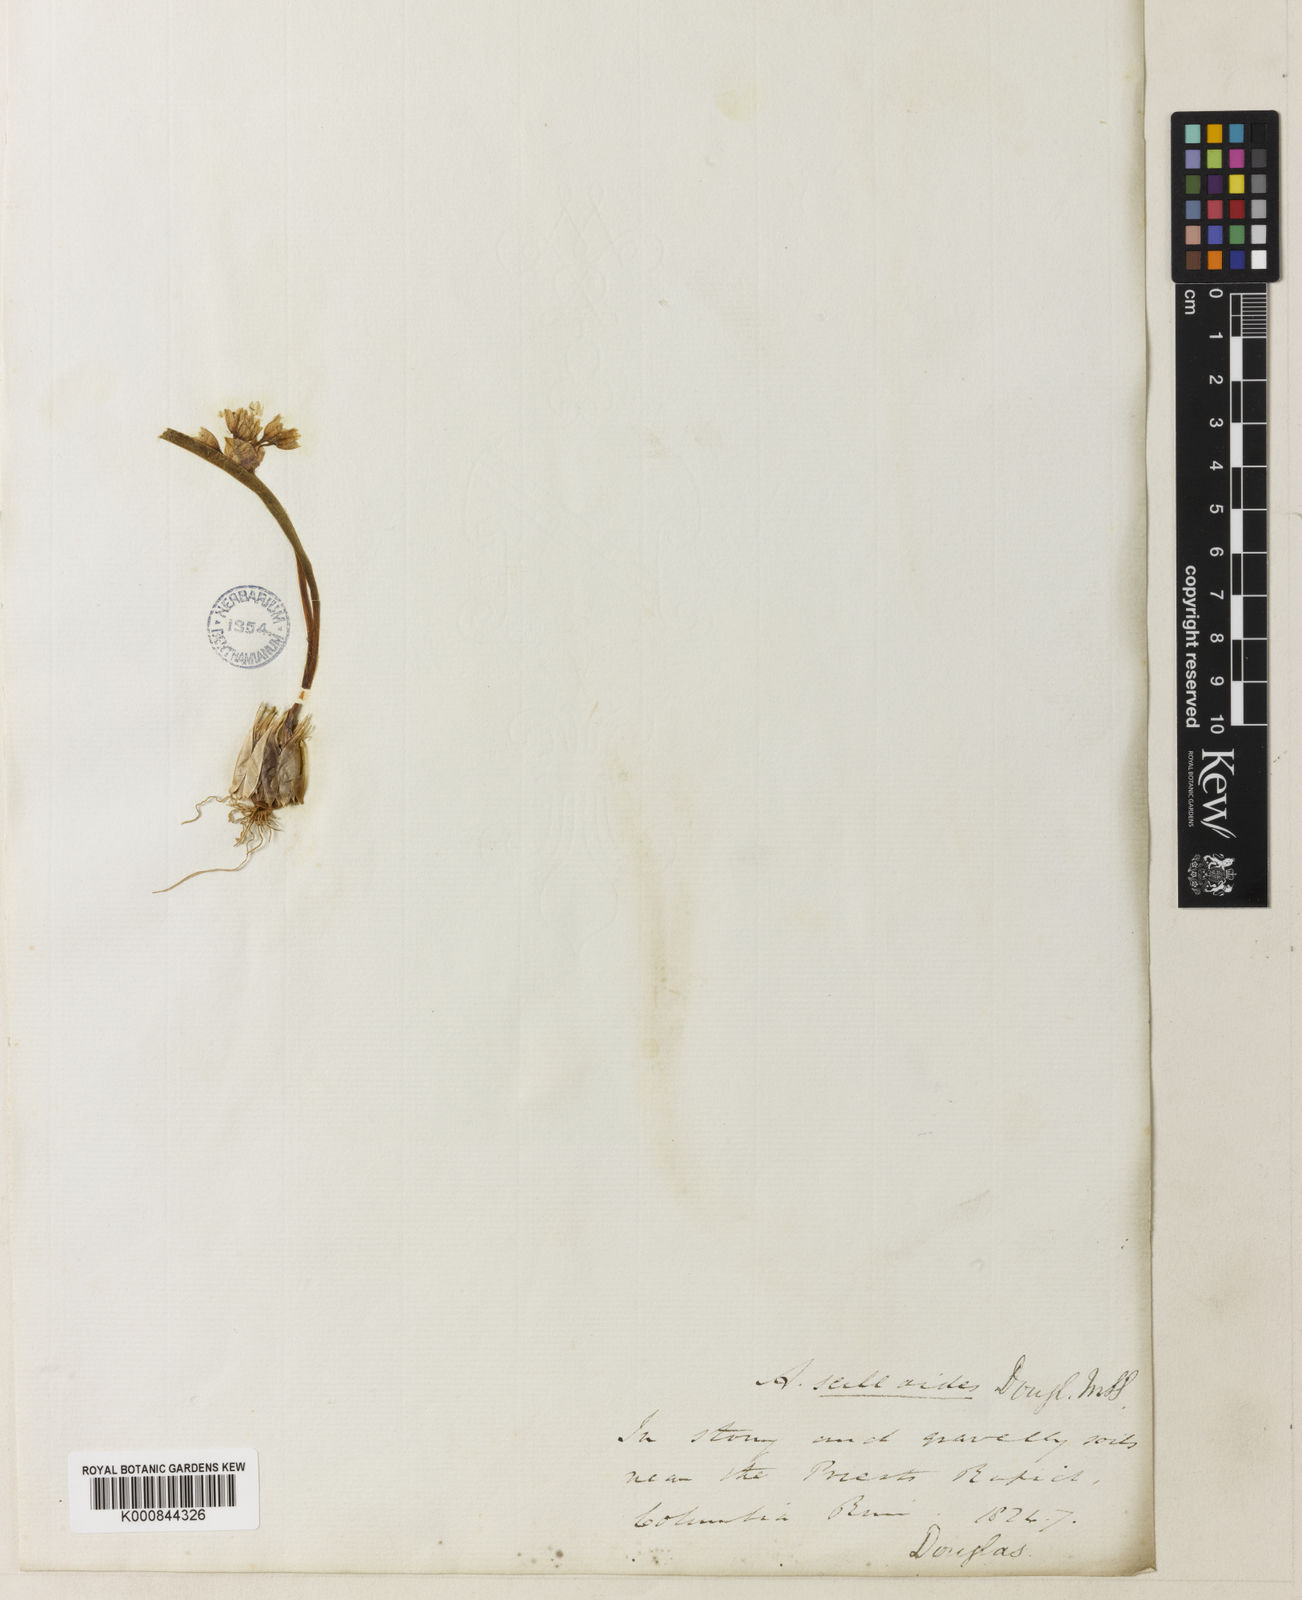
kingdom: Plantae
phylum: Tracheophyta
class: Liliopsida
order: Asparagales
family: Amaryllidaceae
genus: Allium
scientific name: Allium scilloides
